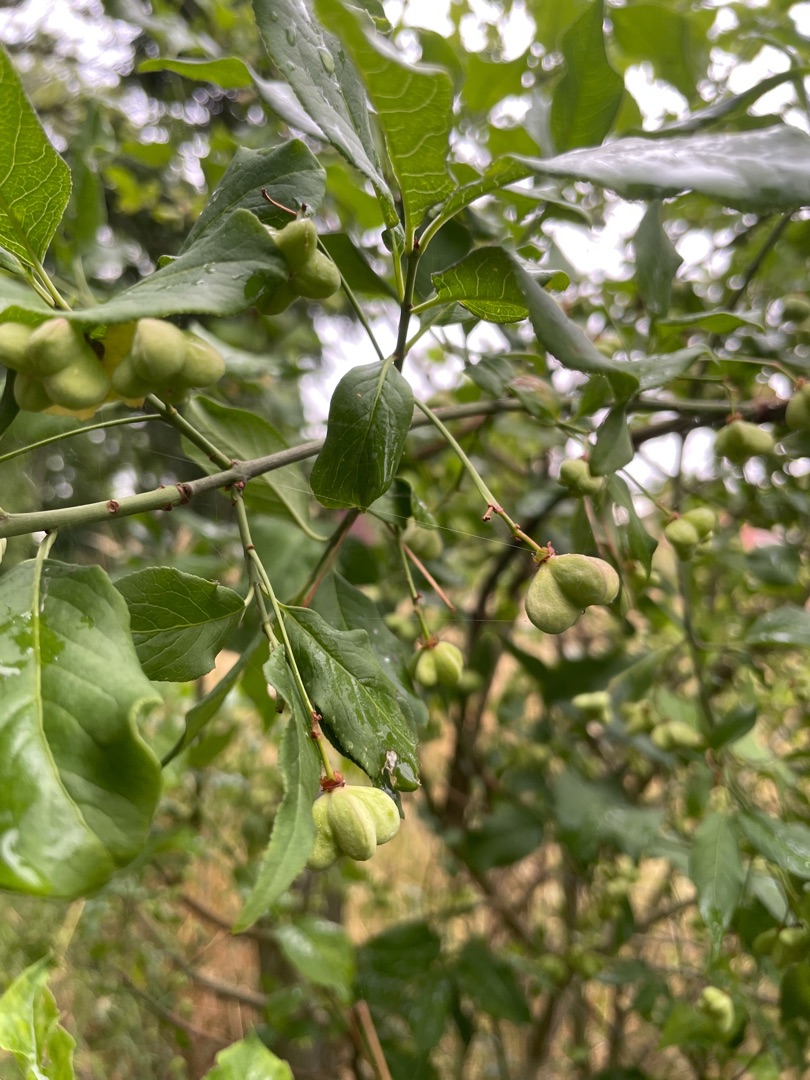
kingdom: Plantae
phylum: Tracheophyta
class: Magnoliopsida
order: Celastrales
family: Celastraceae
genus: Euonymus
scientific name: Euonymus europaeus
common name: Benved
